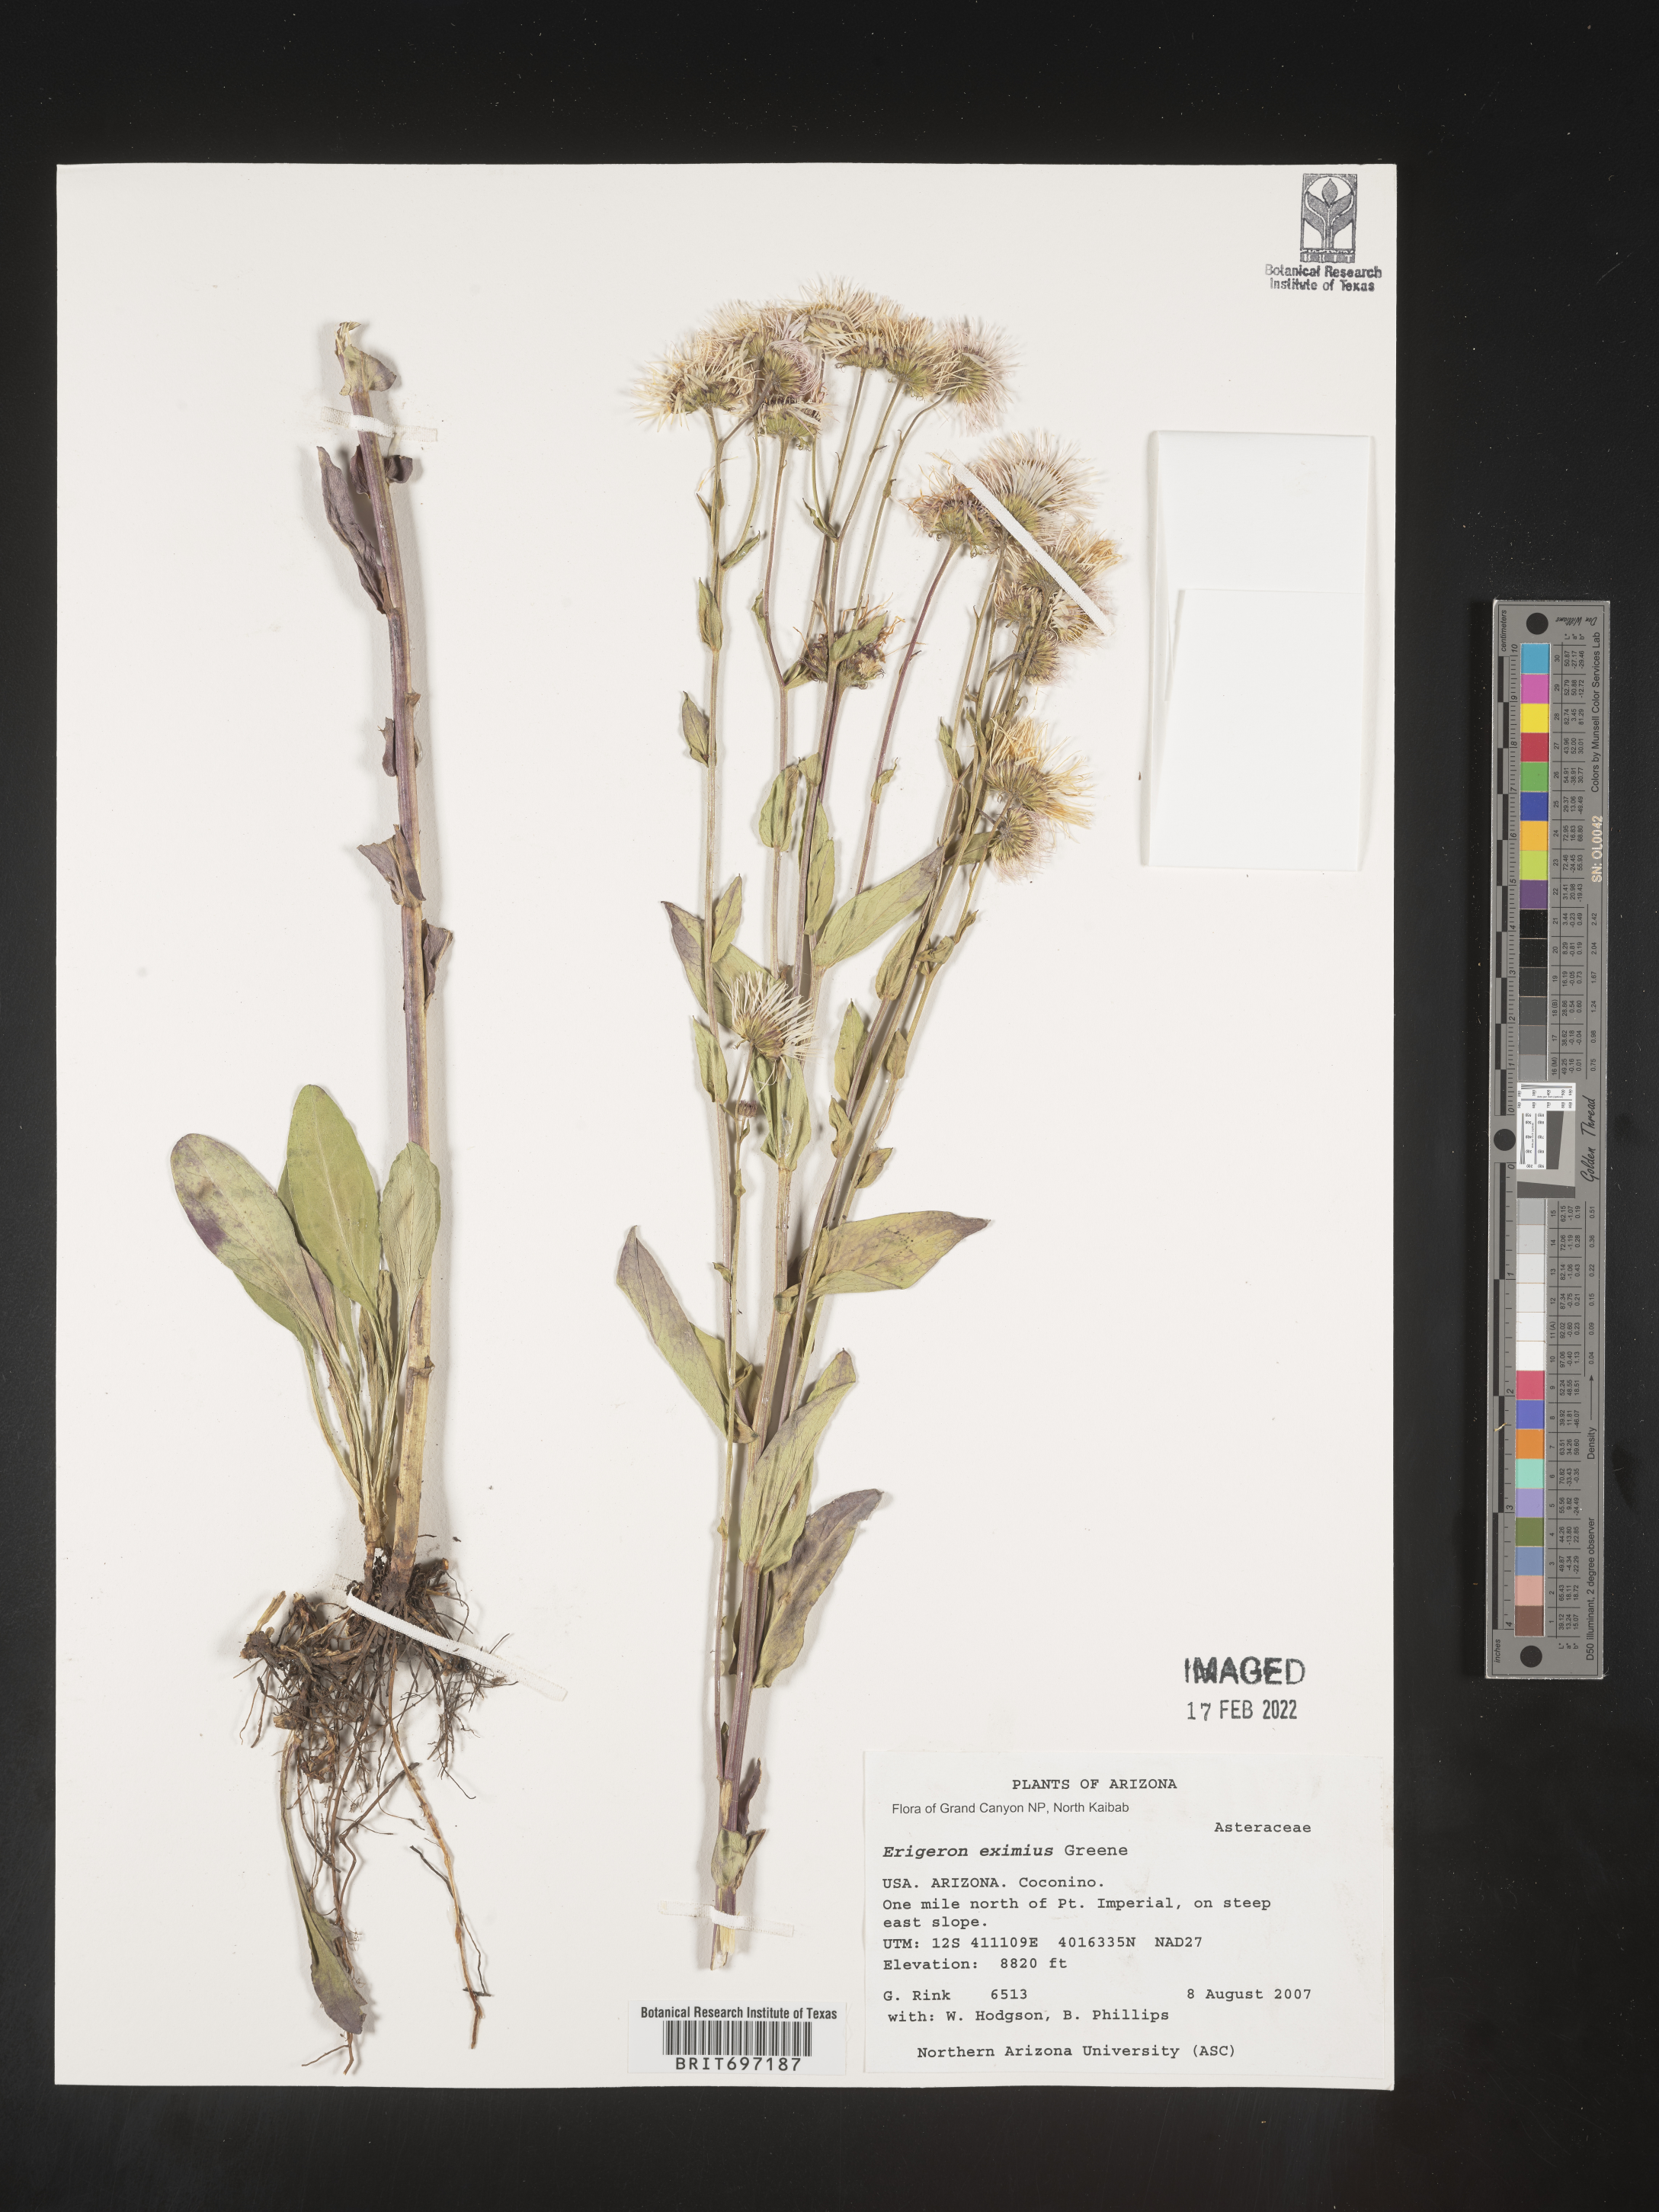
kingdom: Plantae
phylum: Tracheophyta
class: Magnoliopsida
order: Asterales
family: Asteraceae
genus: Erigeron
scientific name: Erigeron eximius
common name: Spruce-fir fleabane
